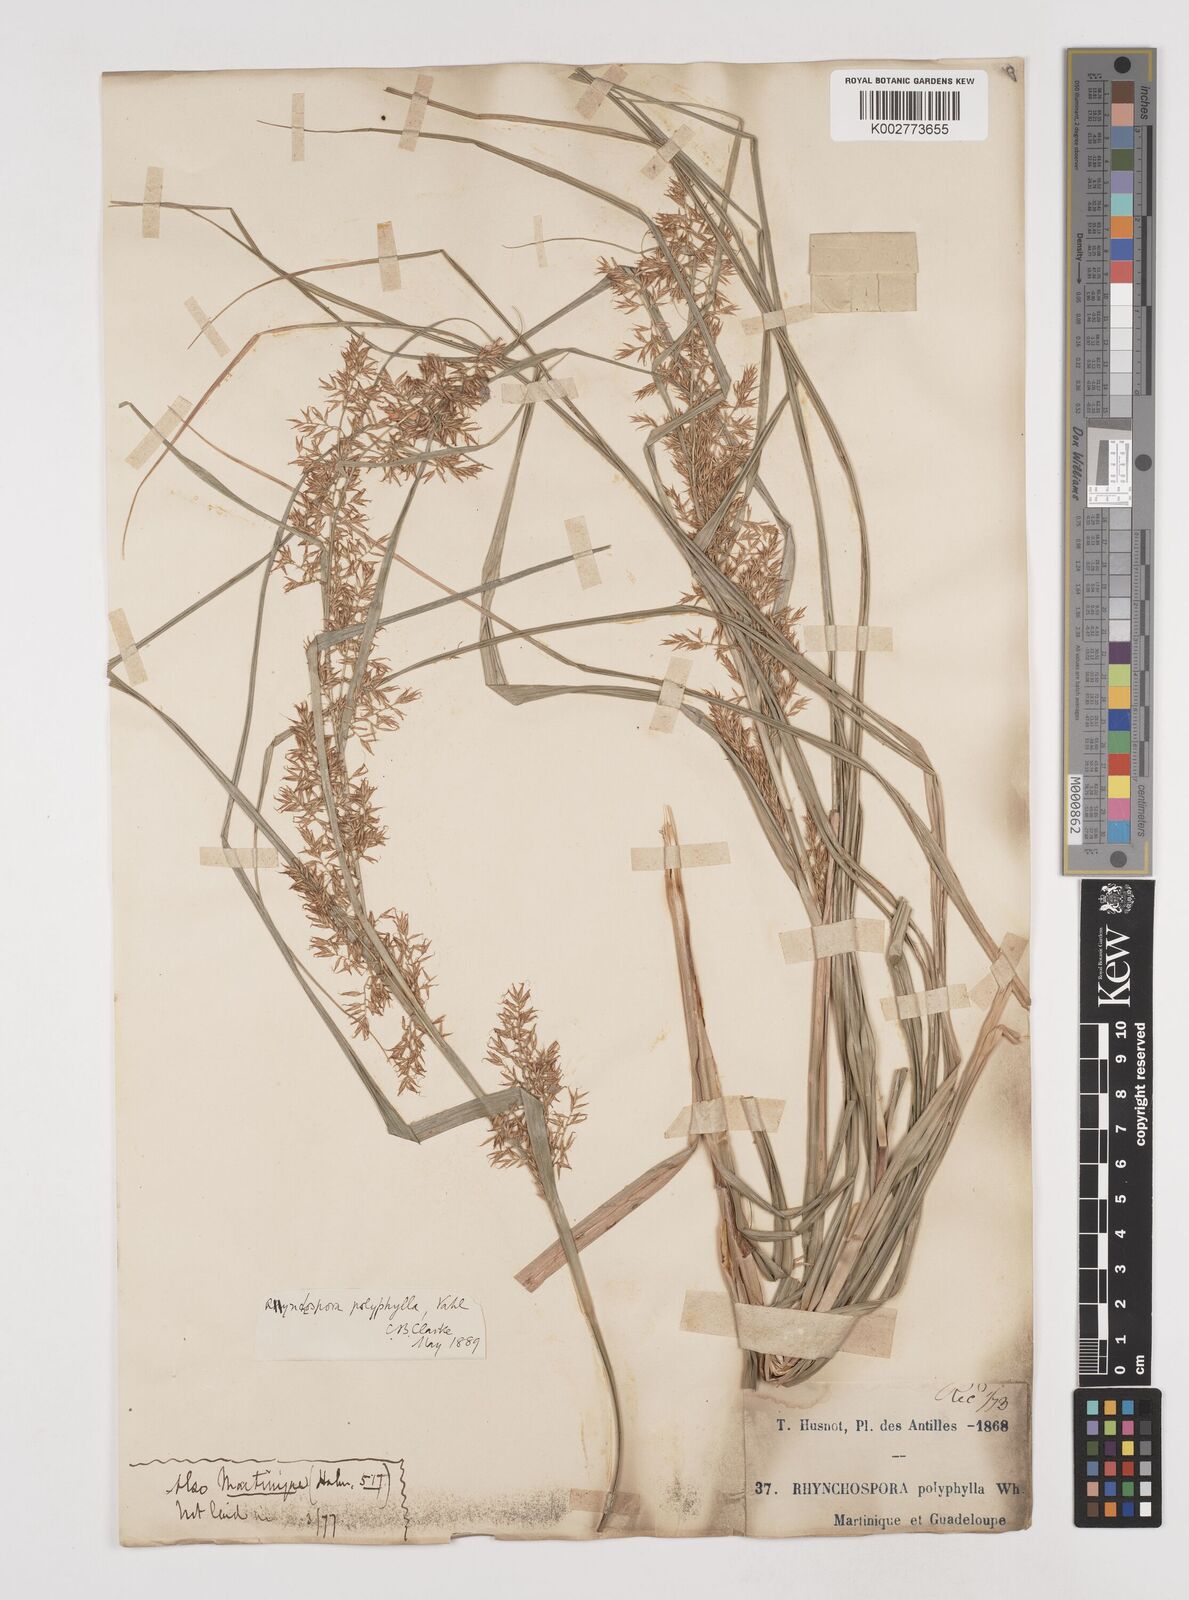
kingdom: Plantae
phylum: Tracheophyta
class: Liliopsida
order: Poales
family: Cyperaceae
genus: Rhynchospora
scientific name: Rhynchospora polyphylla
